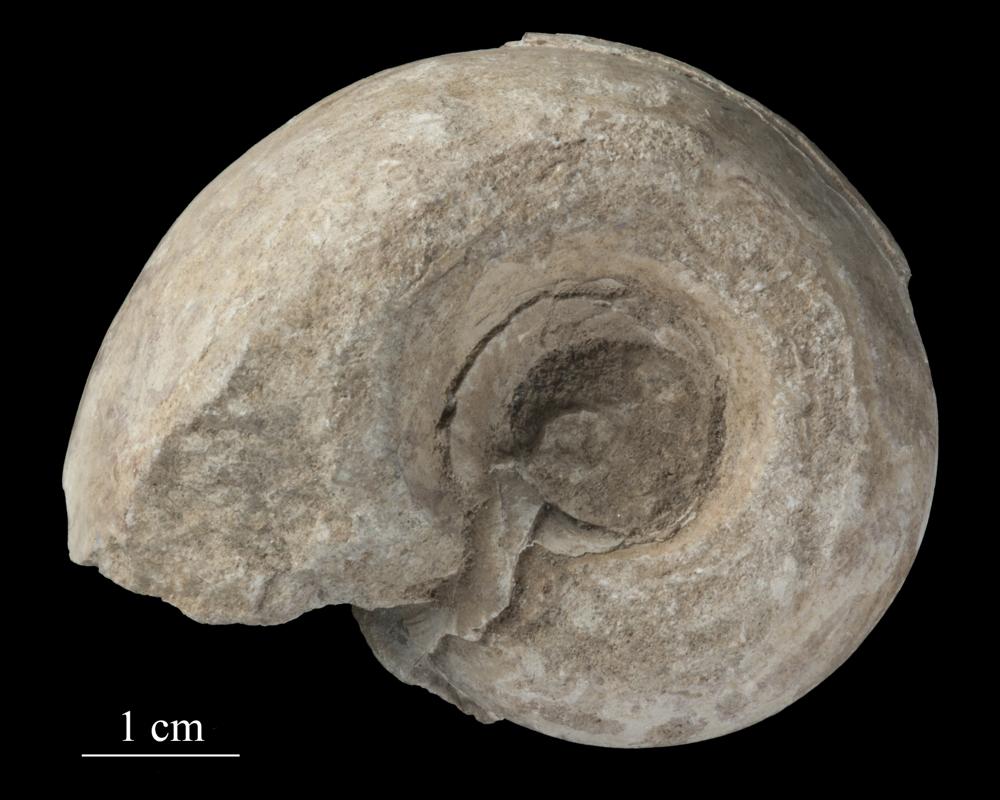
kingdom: Animalia
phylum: Mollusca
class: Gastropoda
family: Lesueurillidae
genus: Pararaphistoma
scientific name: Pararaphistoma Helicites qualteriata
